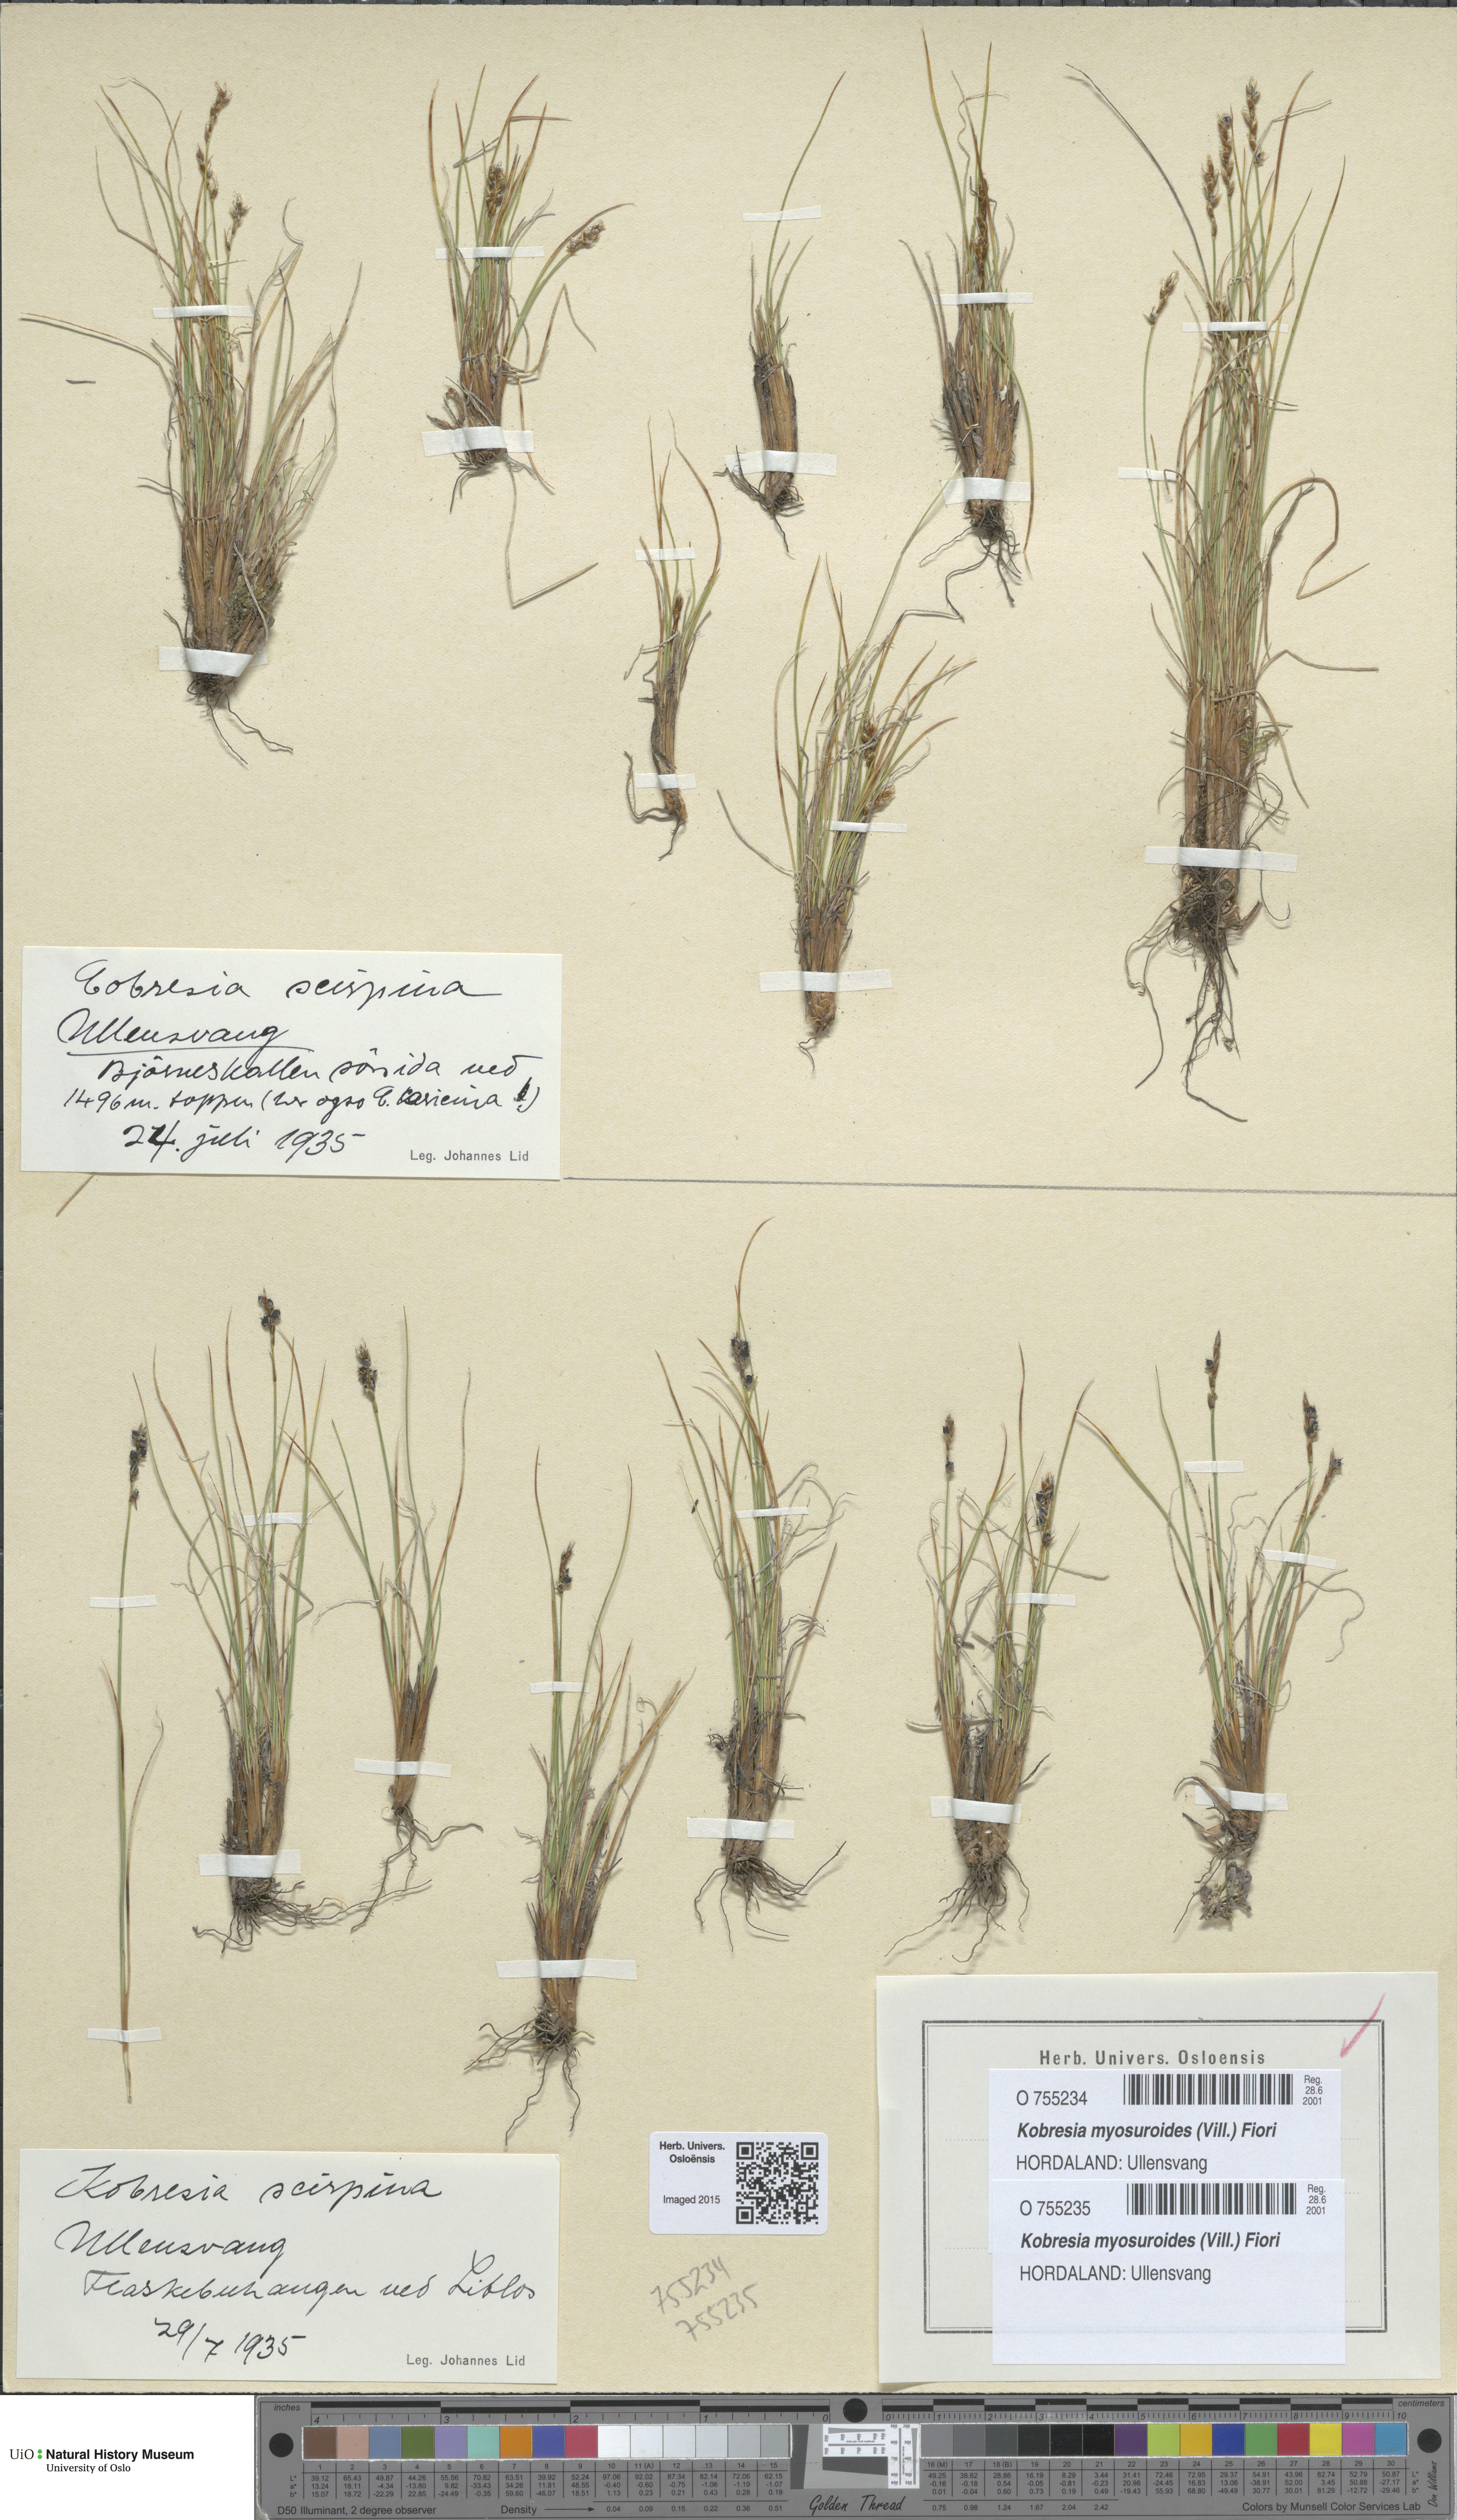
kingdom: Plantae
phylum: Tracheophyta
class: Liliopsida
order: Poales
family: Cyperaceae
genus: Carex
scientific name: Carex myosuroides
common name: Bellard's bog sedge
